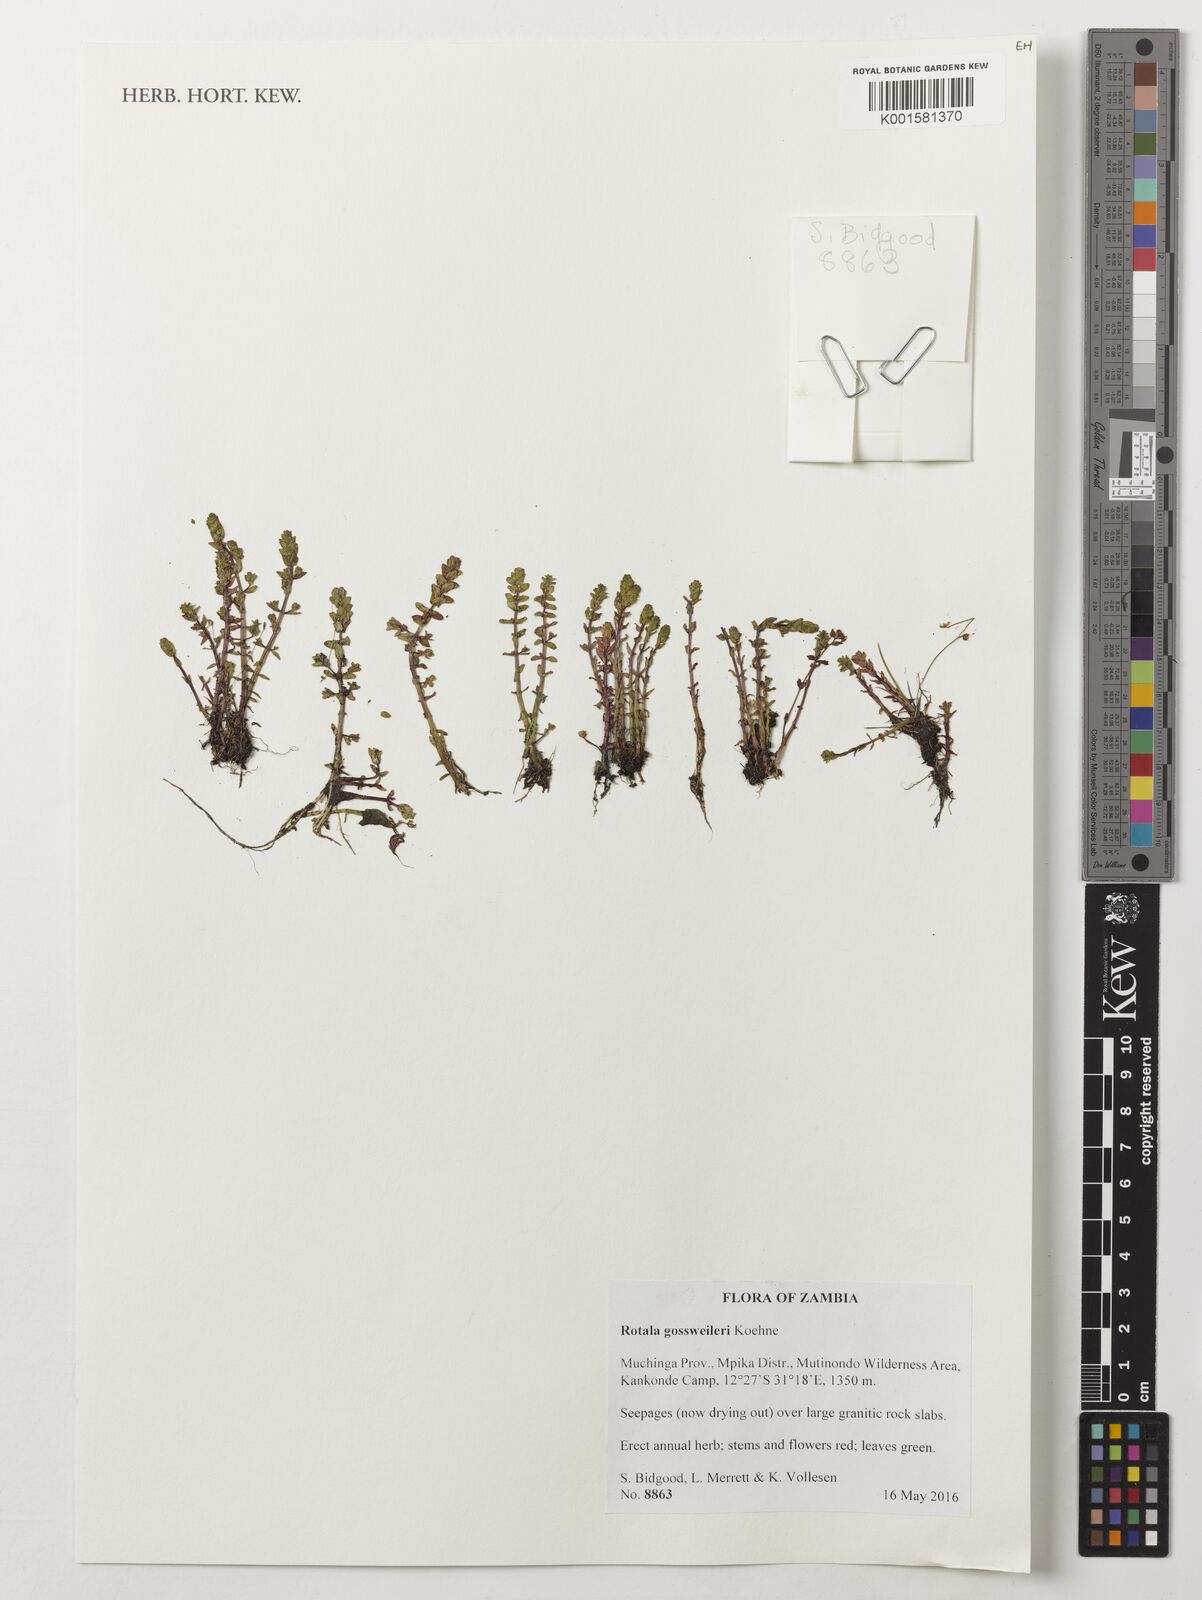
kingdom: Plantae
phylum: Tracheophyta
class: Magnoliopsida
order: Myrtales
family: Lythraceae
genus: Rotala
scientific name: Rotala gossweileri
